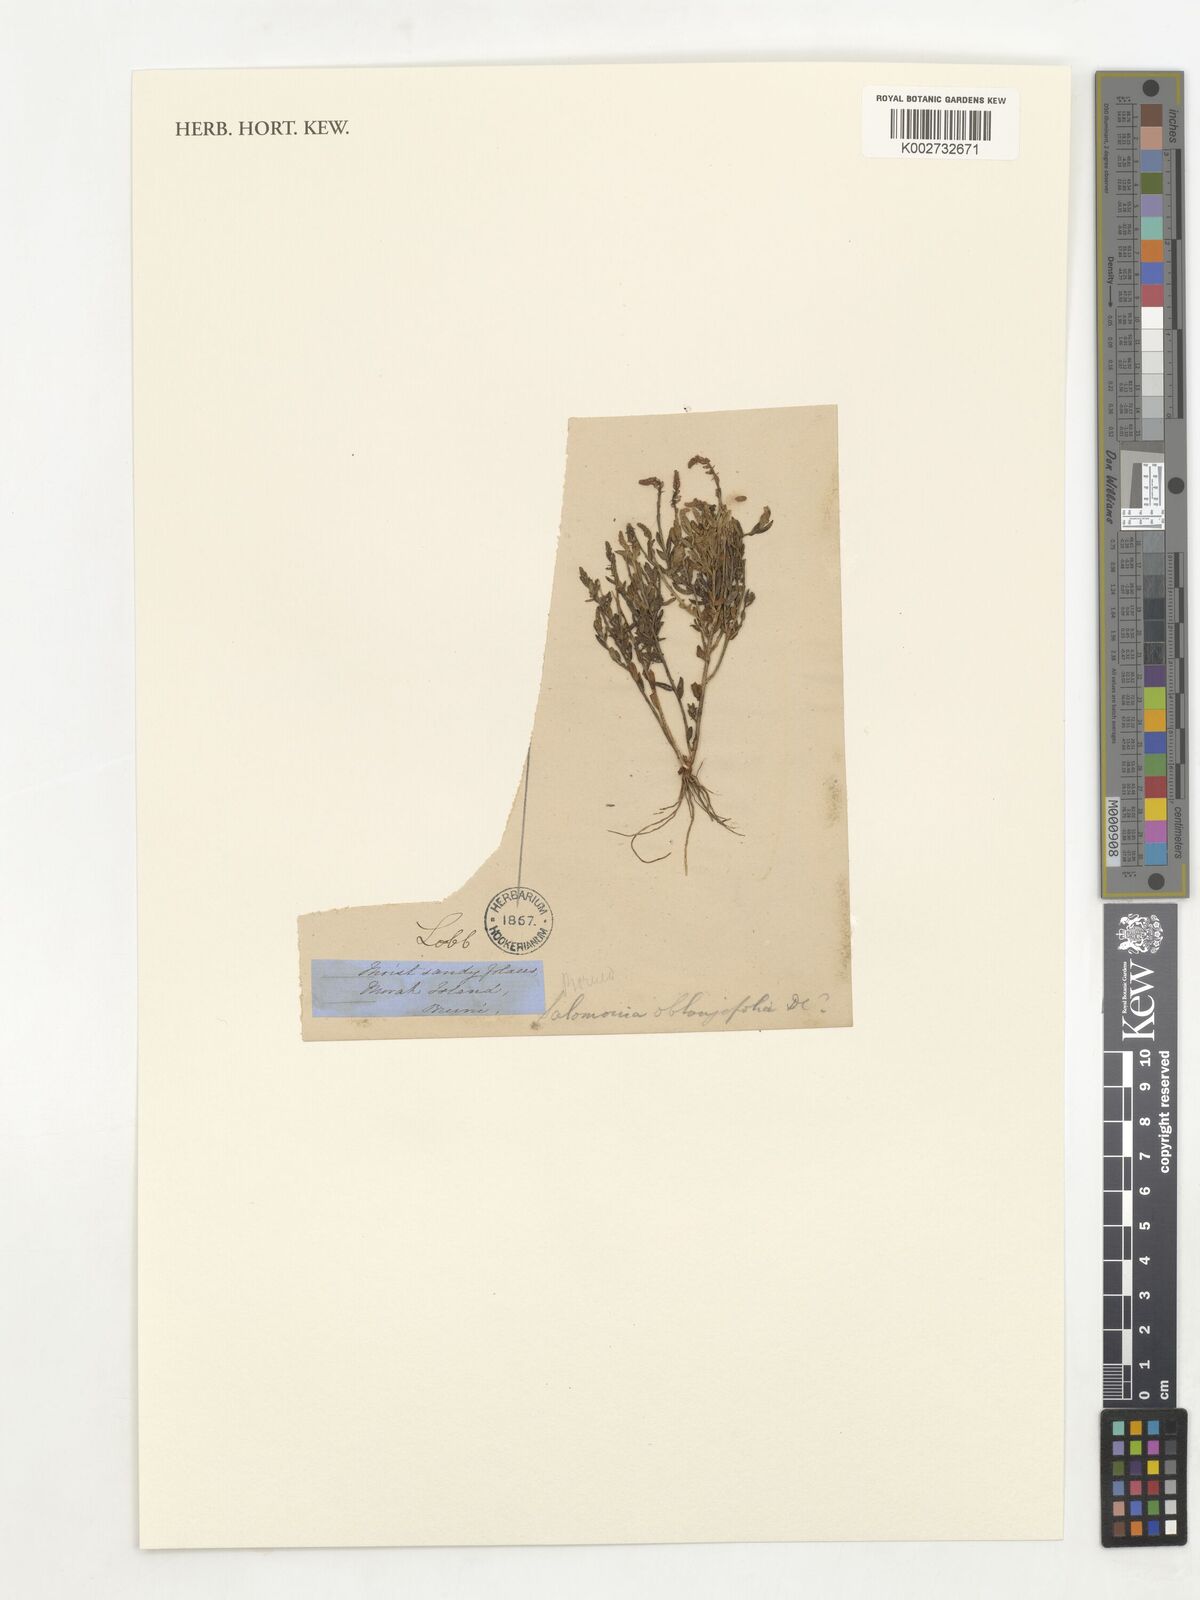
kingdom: Plantae
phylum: Tracheophyta
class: Magnoliopsida
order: Fabales
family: Polygalaceae
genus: Salomonia
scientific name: Salomonia ciliata
